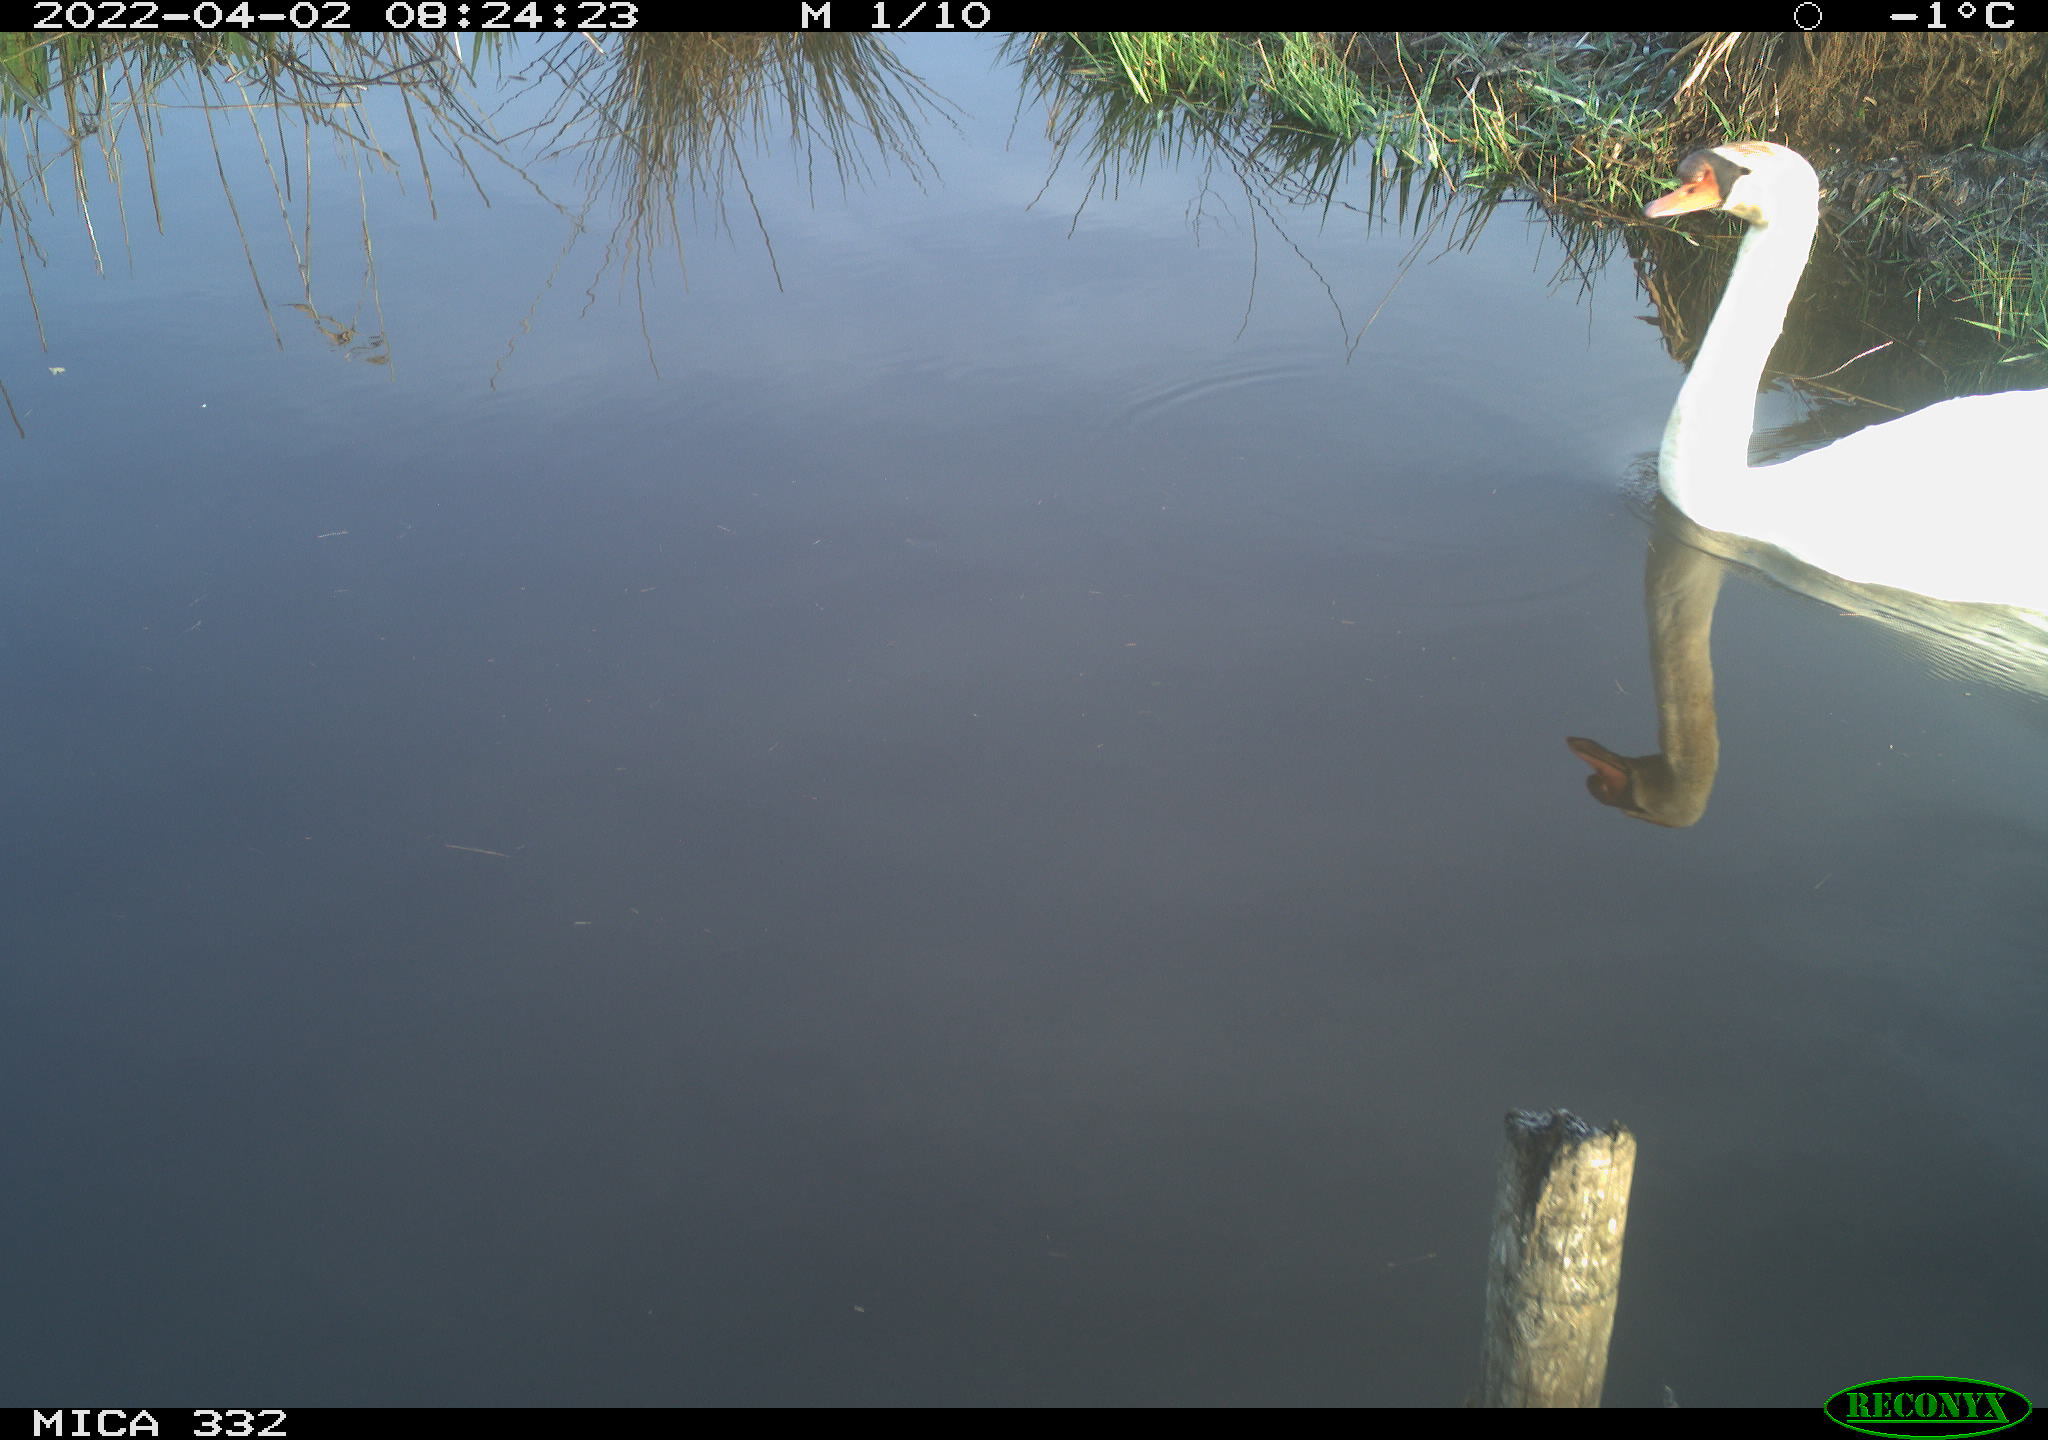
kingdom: Animalia
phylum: Chordata
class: Aves
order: Anseriformes
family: Anatidae
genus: Cygnus
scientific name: Cygnus olor
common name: Mute swan
